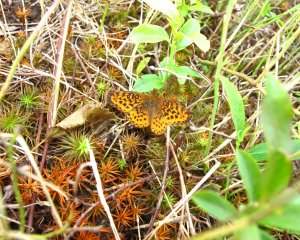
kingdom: Animalia
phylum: Arthropoda
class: Insecta
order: Lepidoptera
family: Nymphalidae
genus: Clossiana
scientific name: Clossiana toddi
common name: Meadow Fritillary
